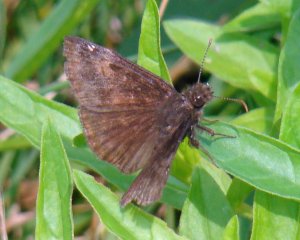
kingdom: Animalia
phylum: Arthropoda
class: Insecta
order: Lepidoptera
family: Hesperiidae
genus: Gesta
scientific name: Gesta
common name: Wild Indigo Duskywing
